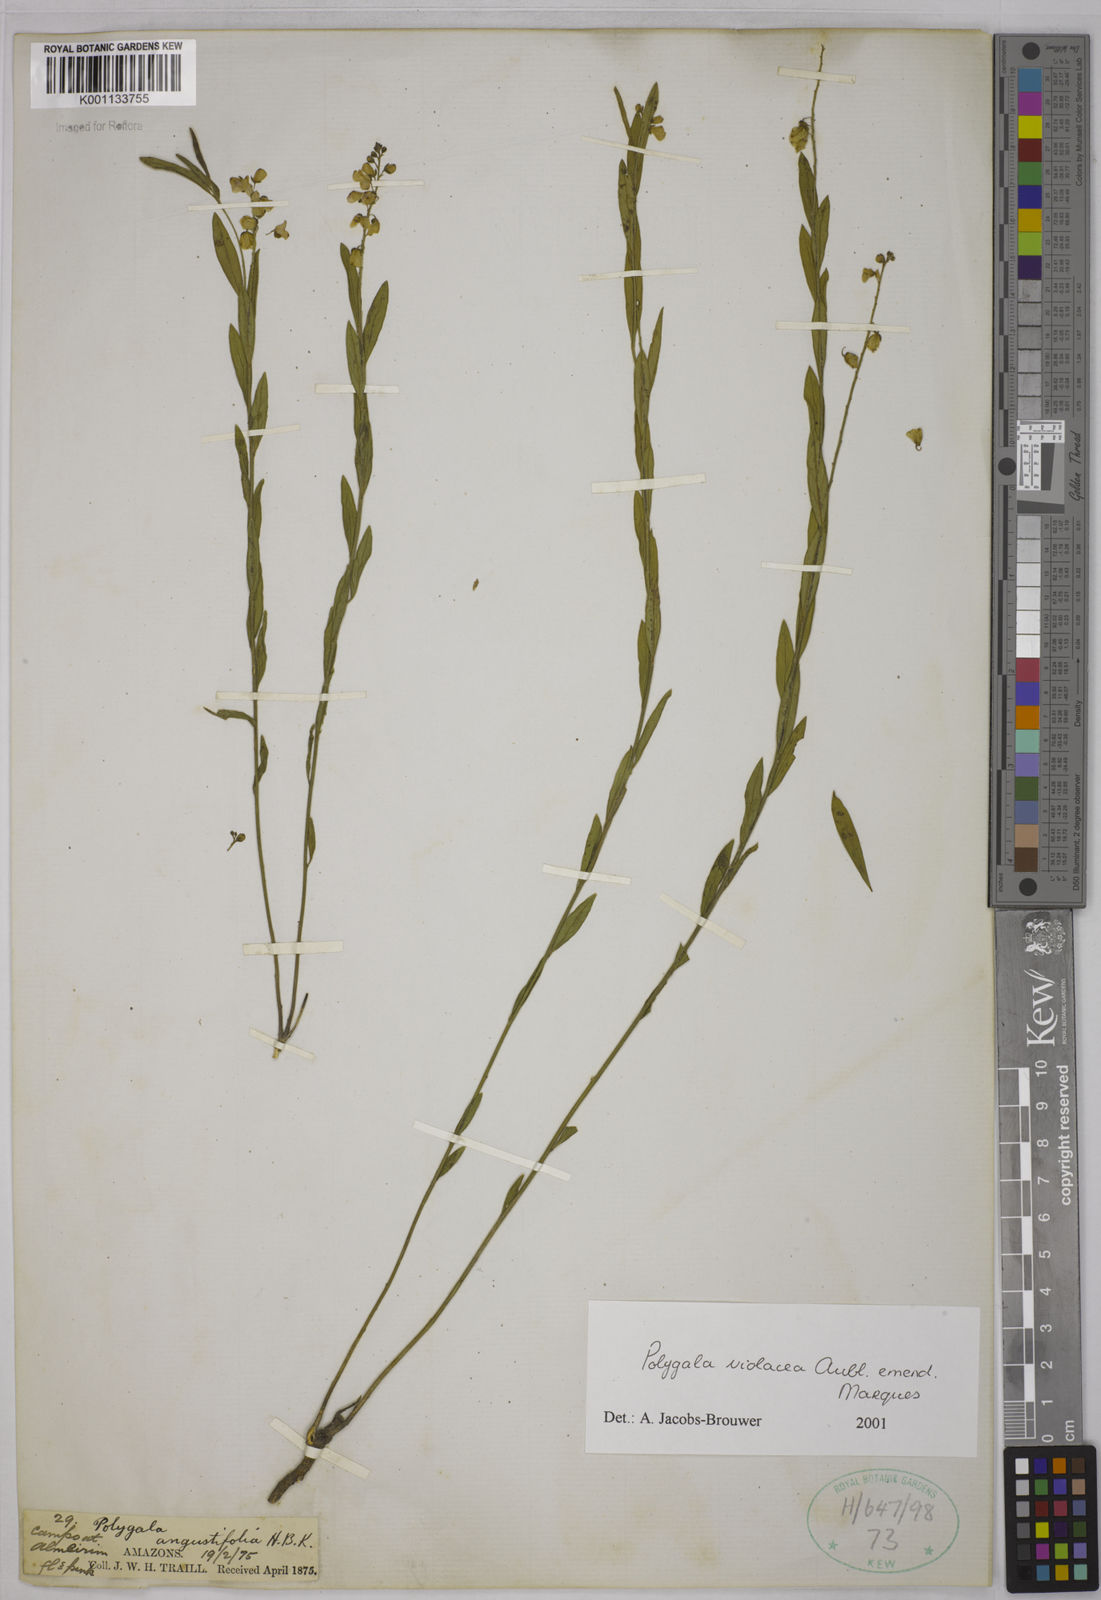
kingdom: Plantae
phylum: Tracheophyta
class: Magnoliopsida
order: Fabales
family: Polygalaceae
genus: Asemeia
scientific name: Asemeia monticola
